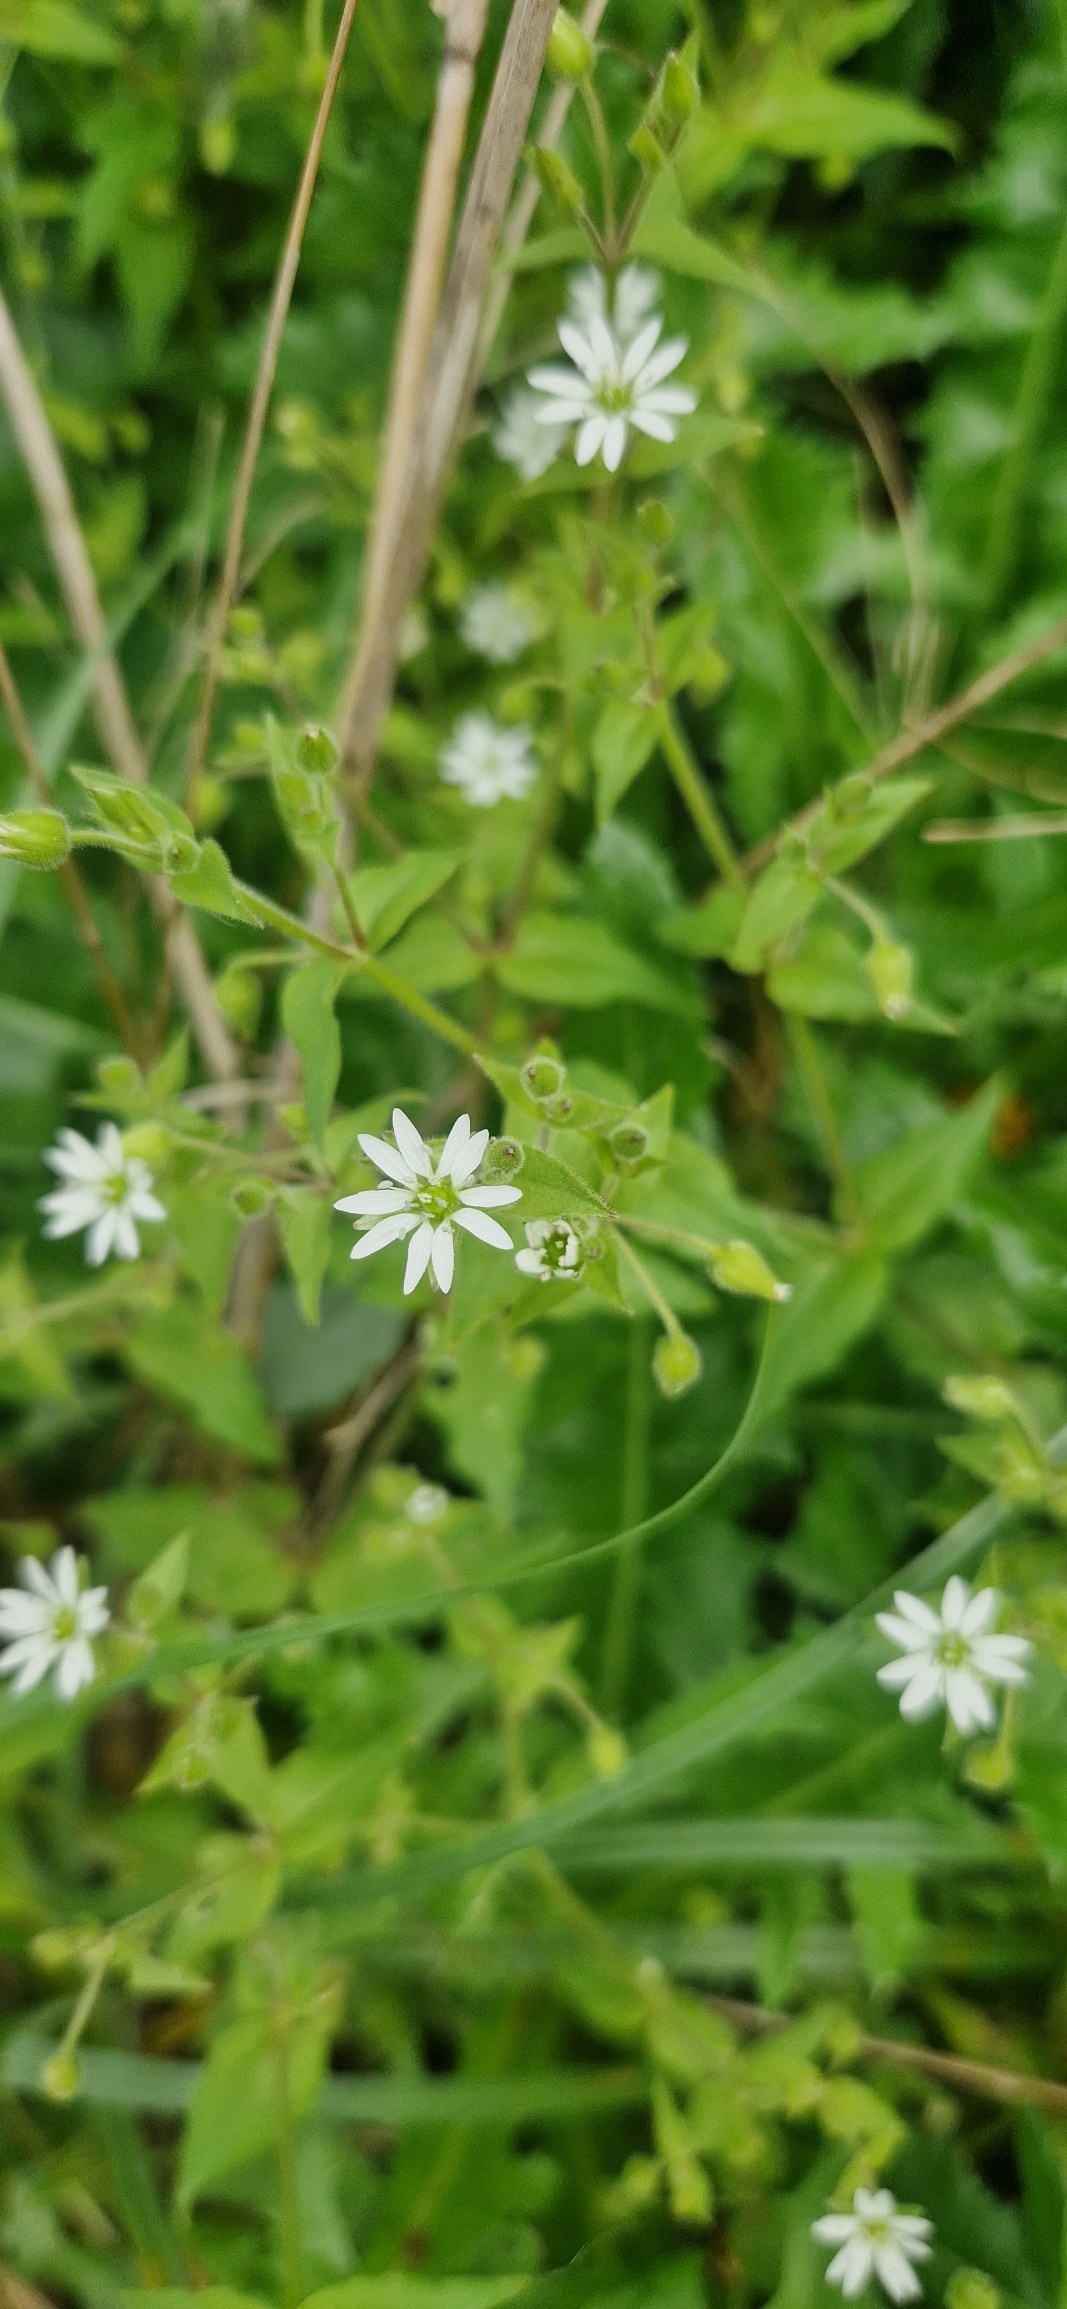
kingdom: Plantae
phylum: Tracheophyta
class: Magnoliopsida
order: Caryophyllales
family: Caryophyllaceae
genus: Stellaria
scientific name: Stellaria aquatica
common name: Kløvkrone
